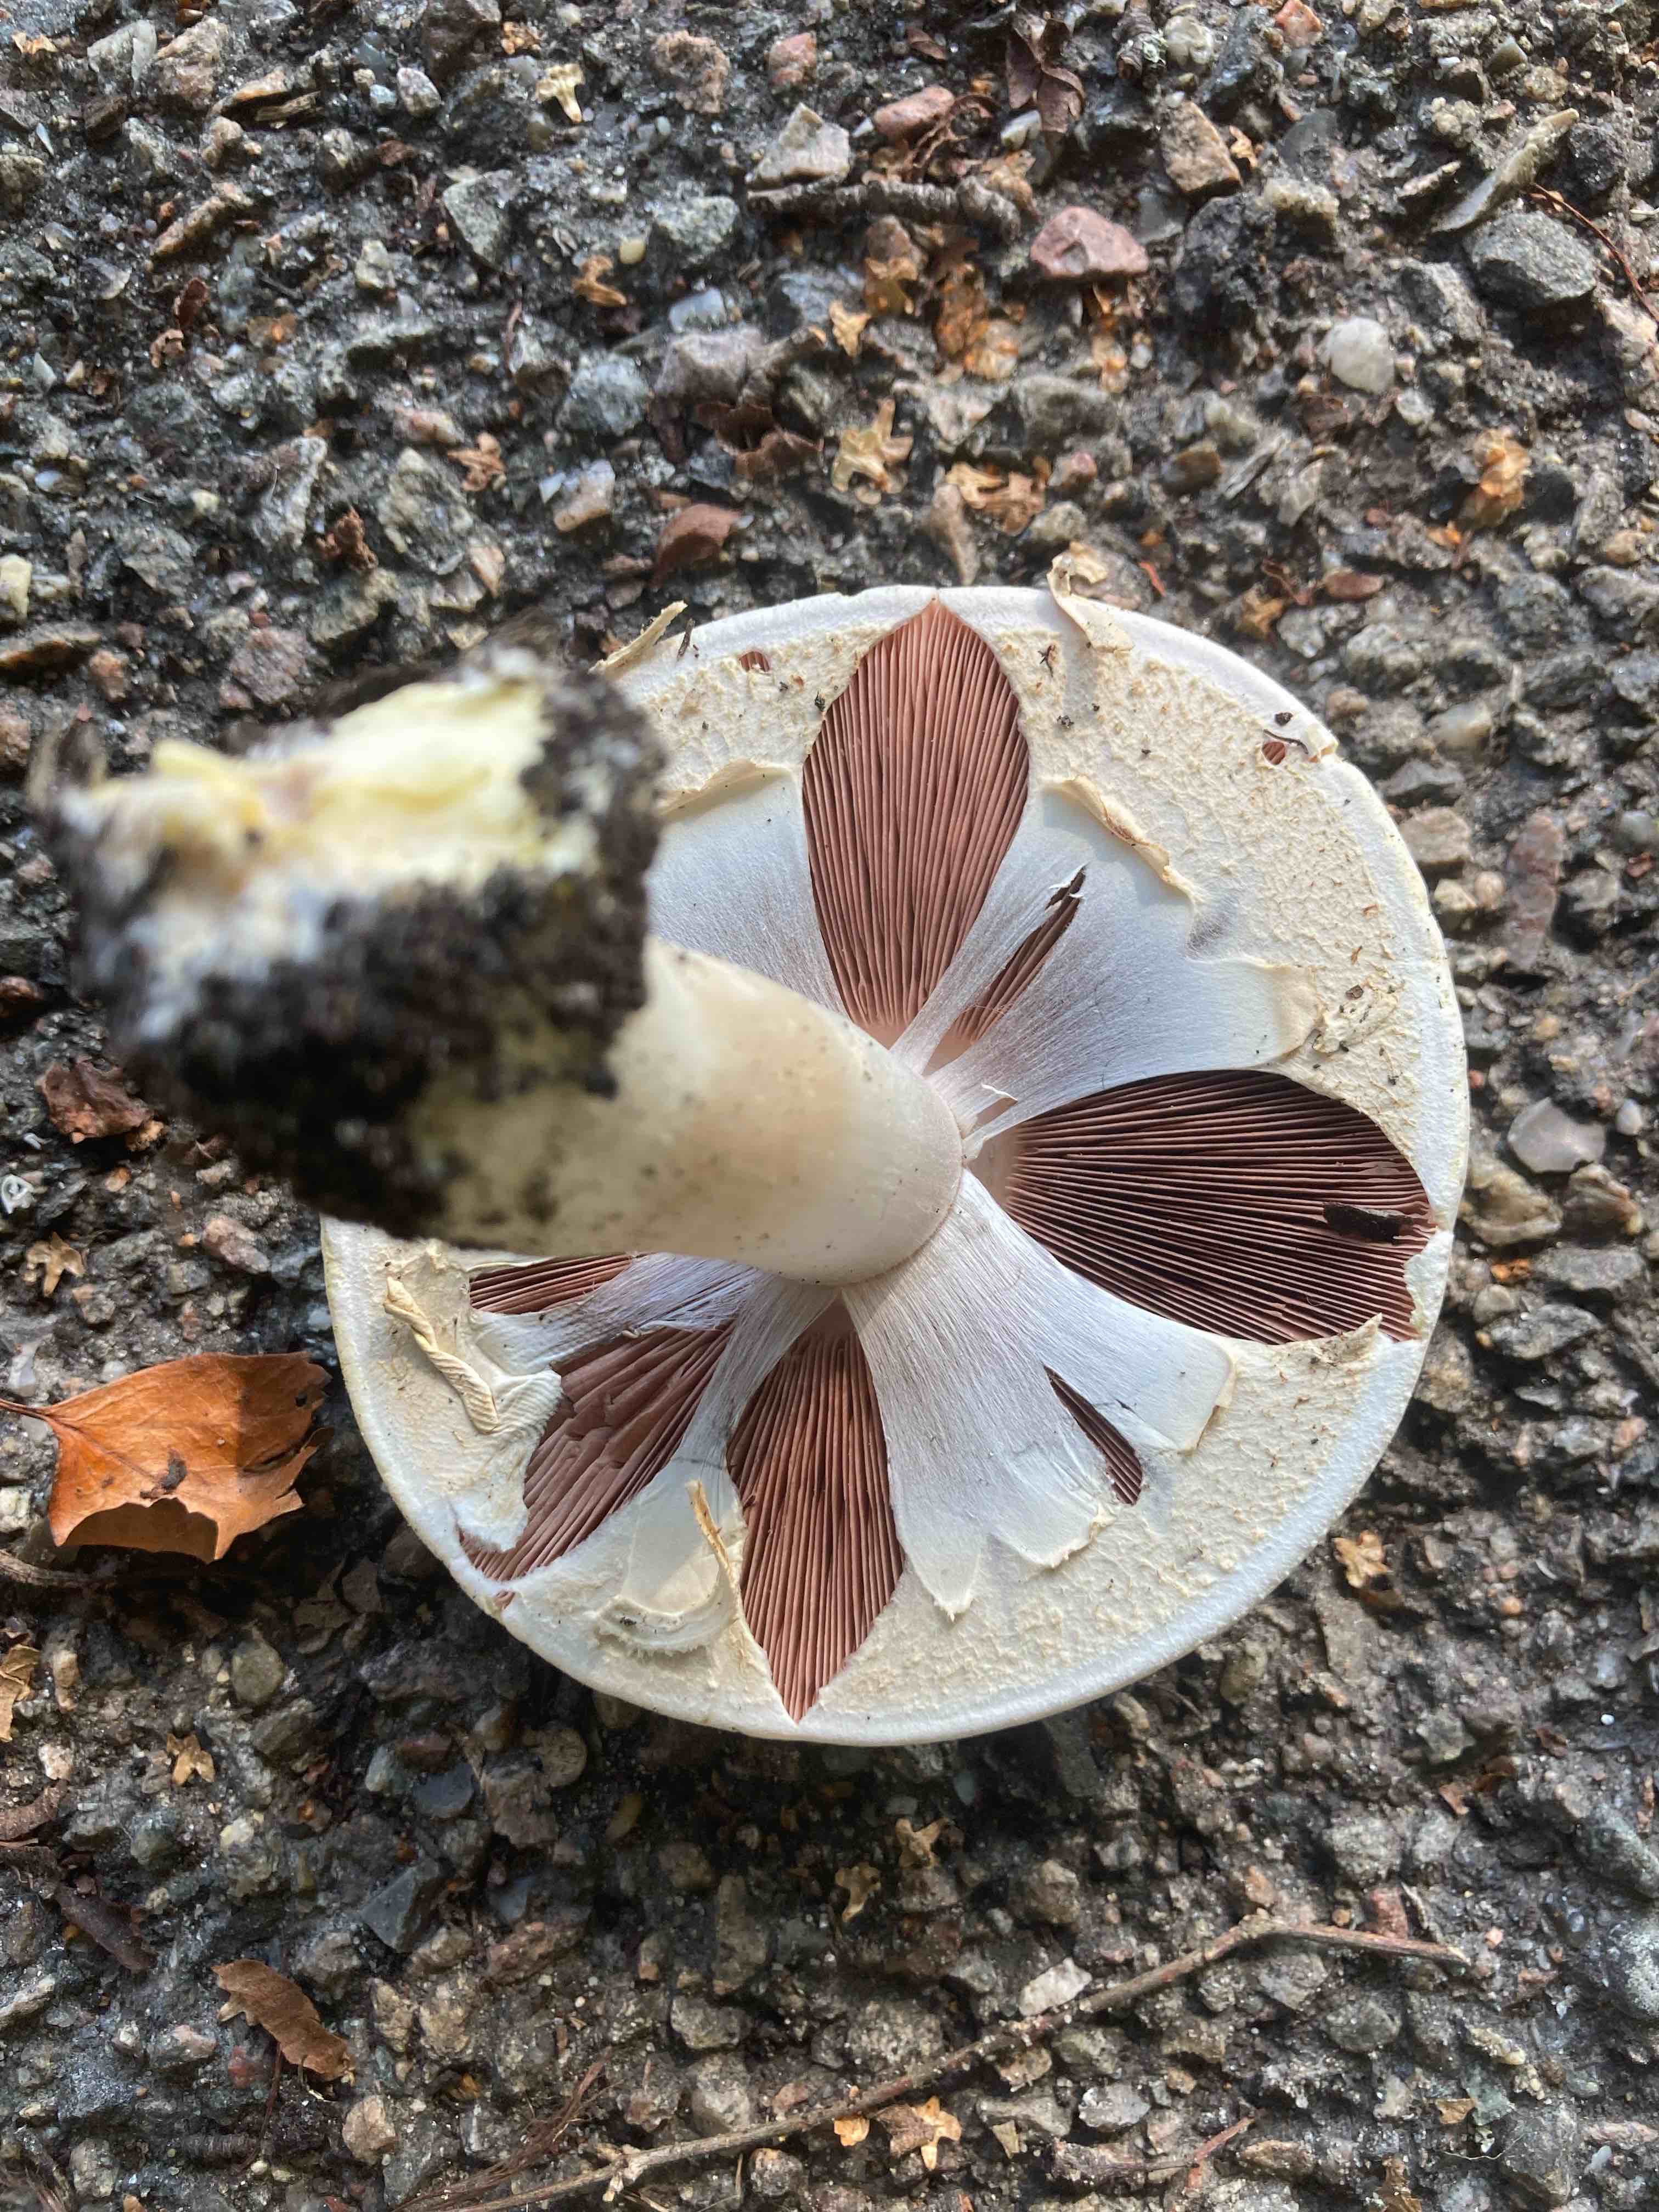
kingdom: Fungi
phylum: Basidiomycota
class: Agaricomycetes
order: Agaricales
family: Agaricaceae
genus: Agaricus
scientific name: Agaricus xanthodermus
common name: karbol-champignon
